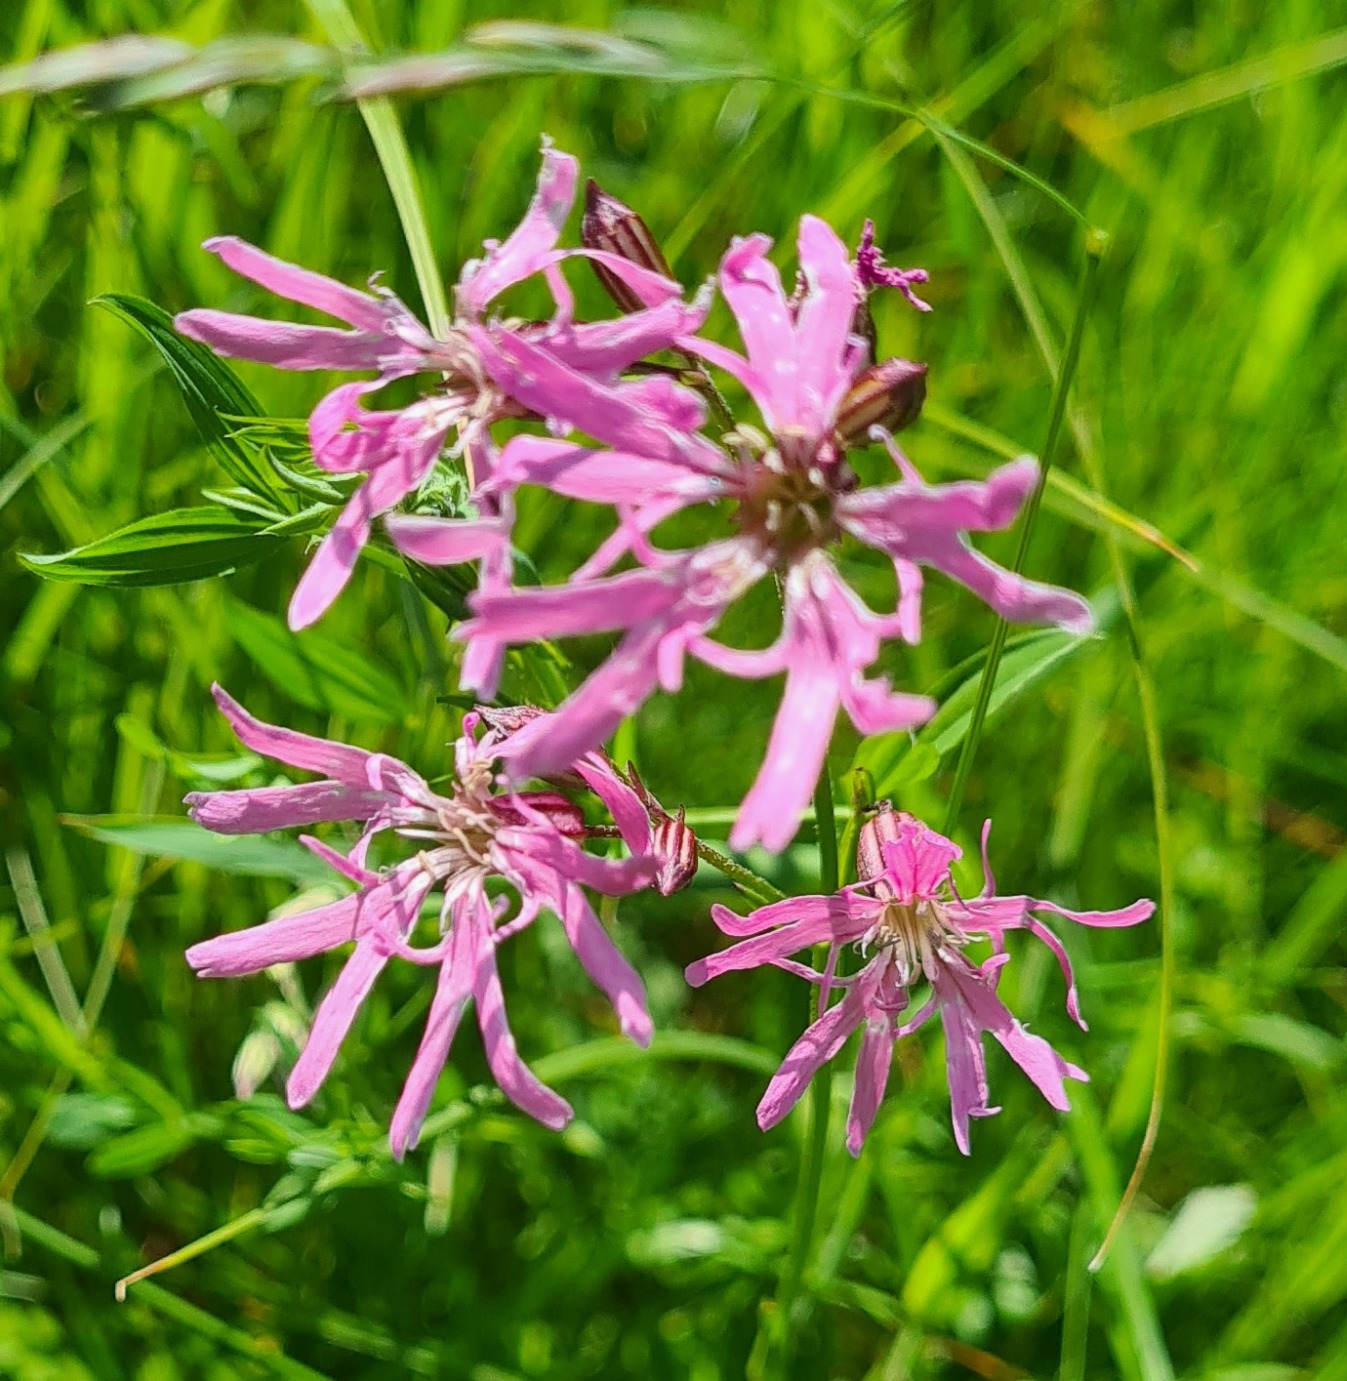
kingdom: Plantae
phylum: Tracheophyta
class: Magnoliopsida
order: Caryophyllales
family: Caryophyllaceae
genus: Silene
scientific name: Silene flos-cuculi
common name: Trævlekrone
